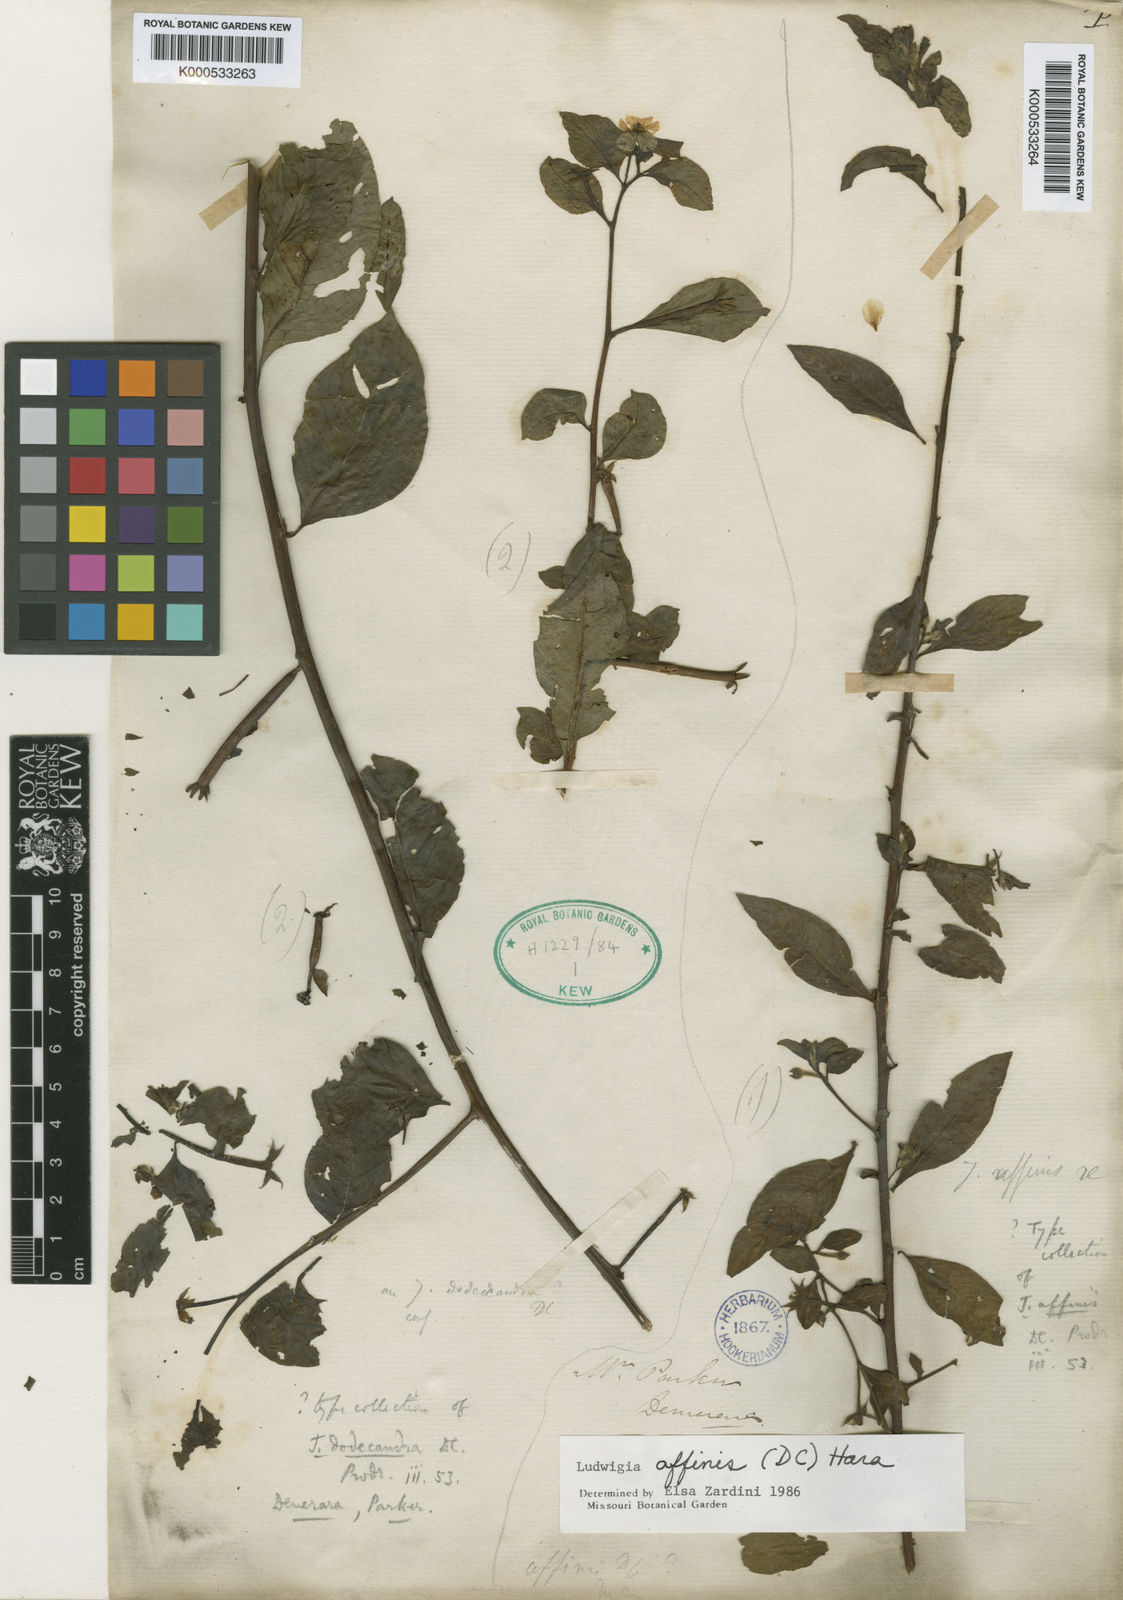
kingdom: Plantae
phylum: Tracheophyta
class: Magnoliopsida
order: Myrtales
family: Onagraceae
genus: Ludwigia
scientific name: Ludwigia affinis
